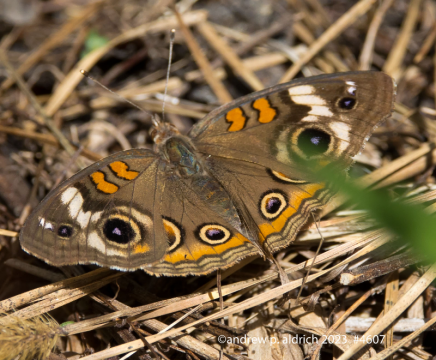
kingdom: Animalia
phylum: Arthropoda
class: Insecta
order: Lepidoptera
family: Nymphalidae
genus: Junonia
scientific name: Junonia coenia
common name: Common Buckeye
